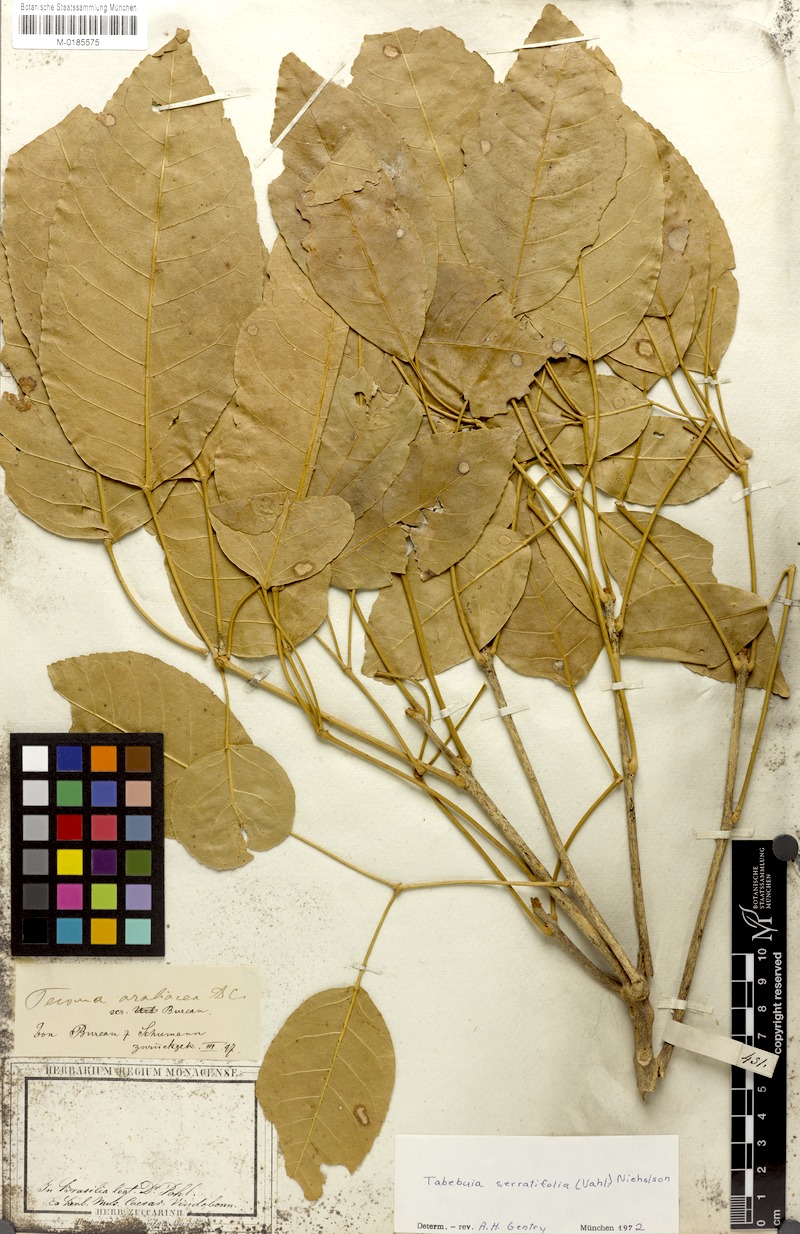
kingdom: Plantae
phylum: Tracheophyta
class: Magnoliopsida
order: Lamiales
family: Bignoniaceae
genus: Handroanthus
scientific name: Handroanthus serratifolius
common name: Yellow ipe
